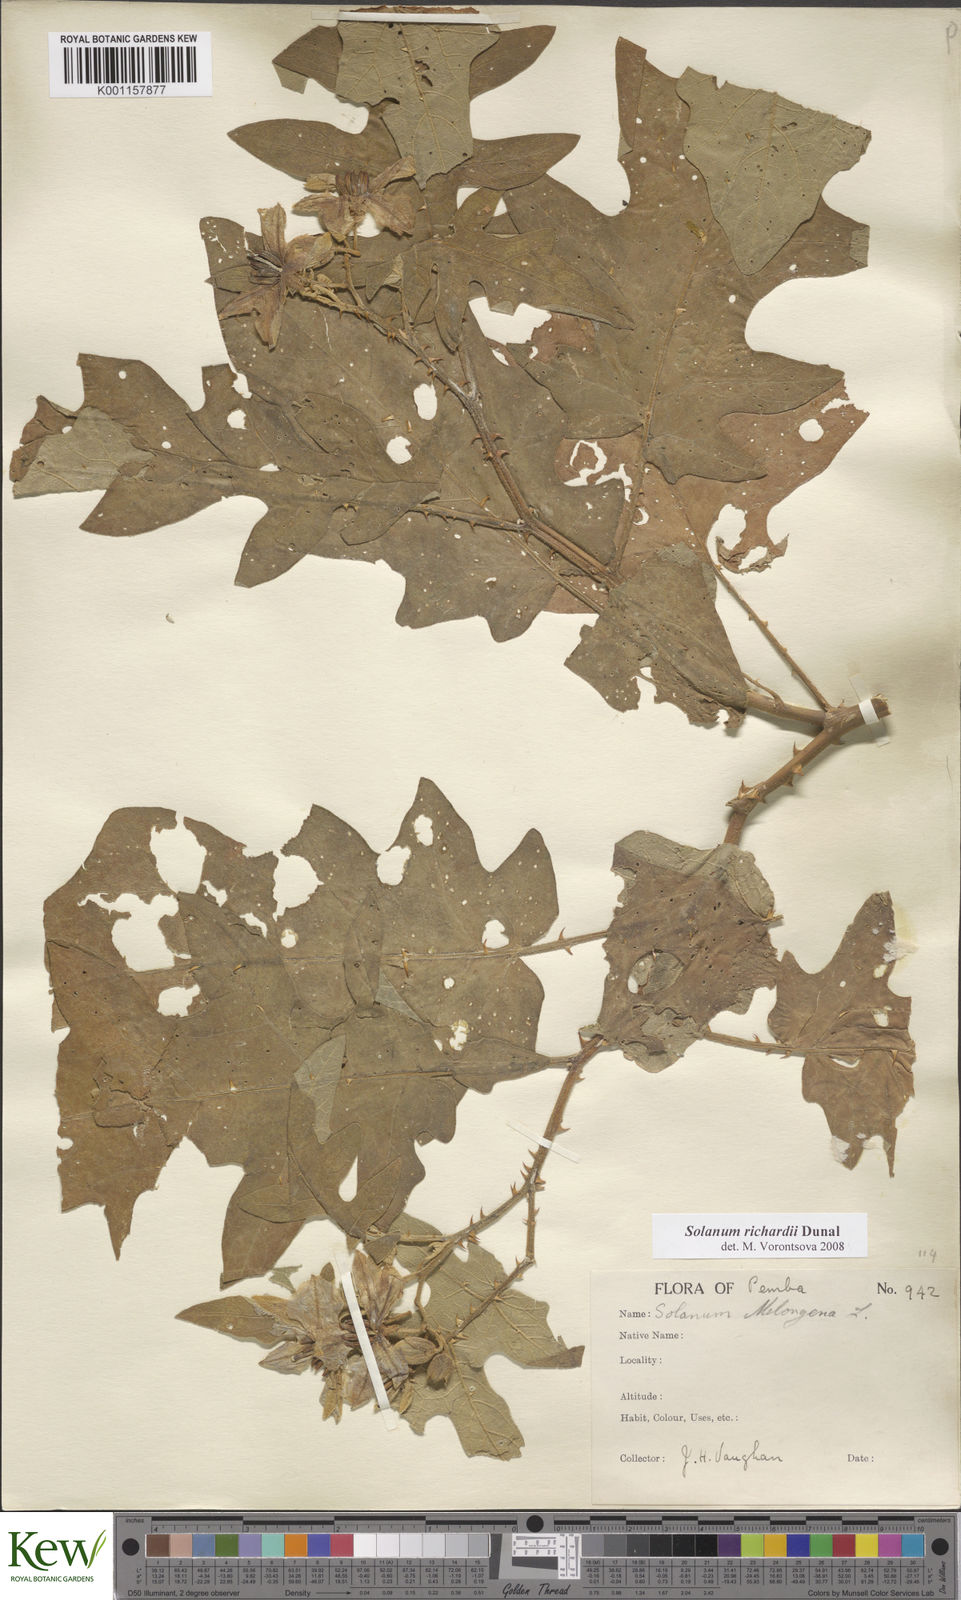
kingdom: Plantae
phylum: Tracheophyta
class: Magnoliopsida
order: Solanales
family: Solanaceae
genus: Solanum
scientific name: Solanum richardii
